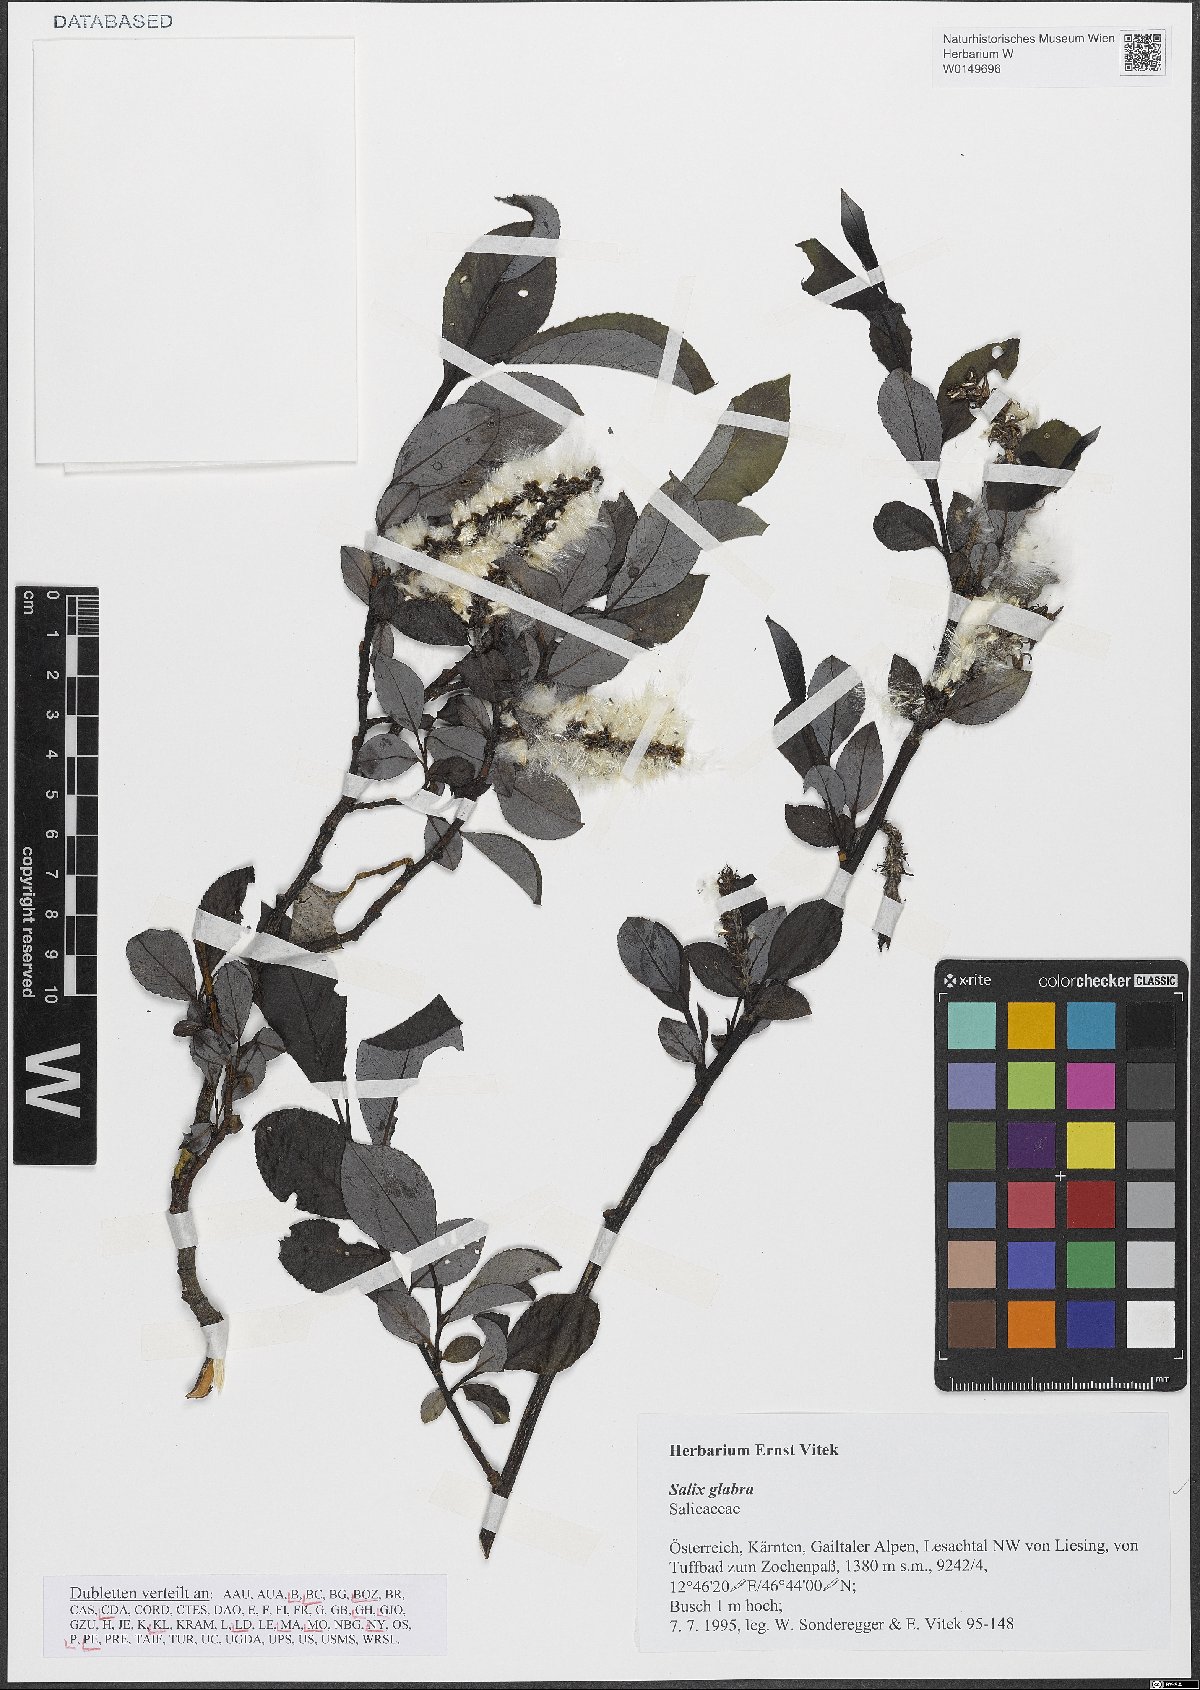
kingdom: Plantae
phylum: Tracheophyta
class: Magnoliopsida
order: Malpighiales
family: Salicaceae
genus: Salix
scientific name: Salix glabra
